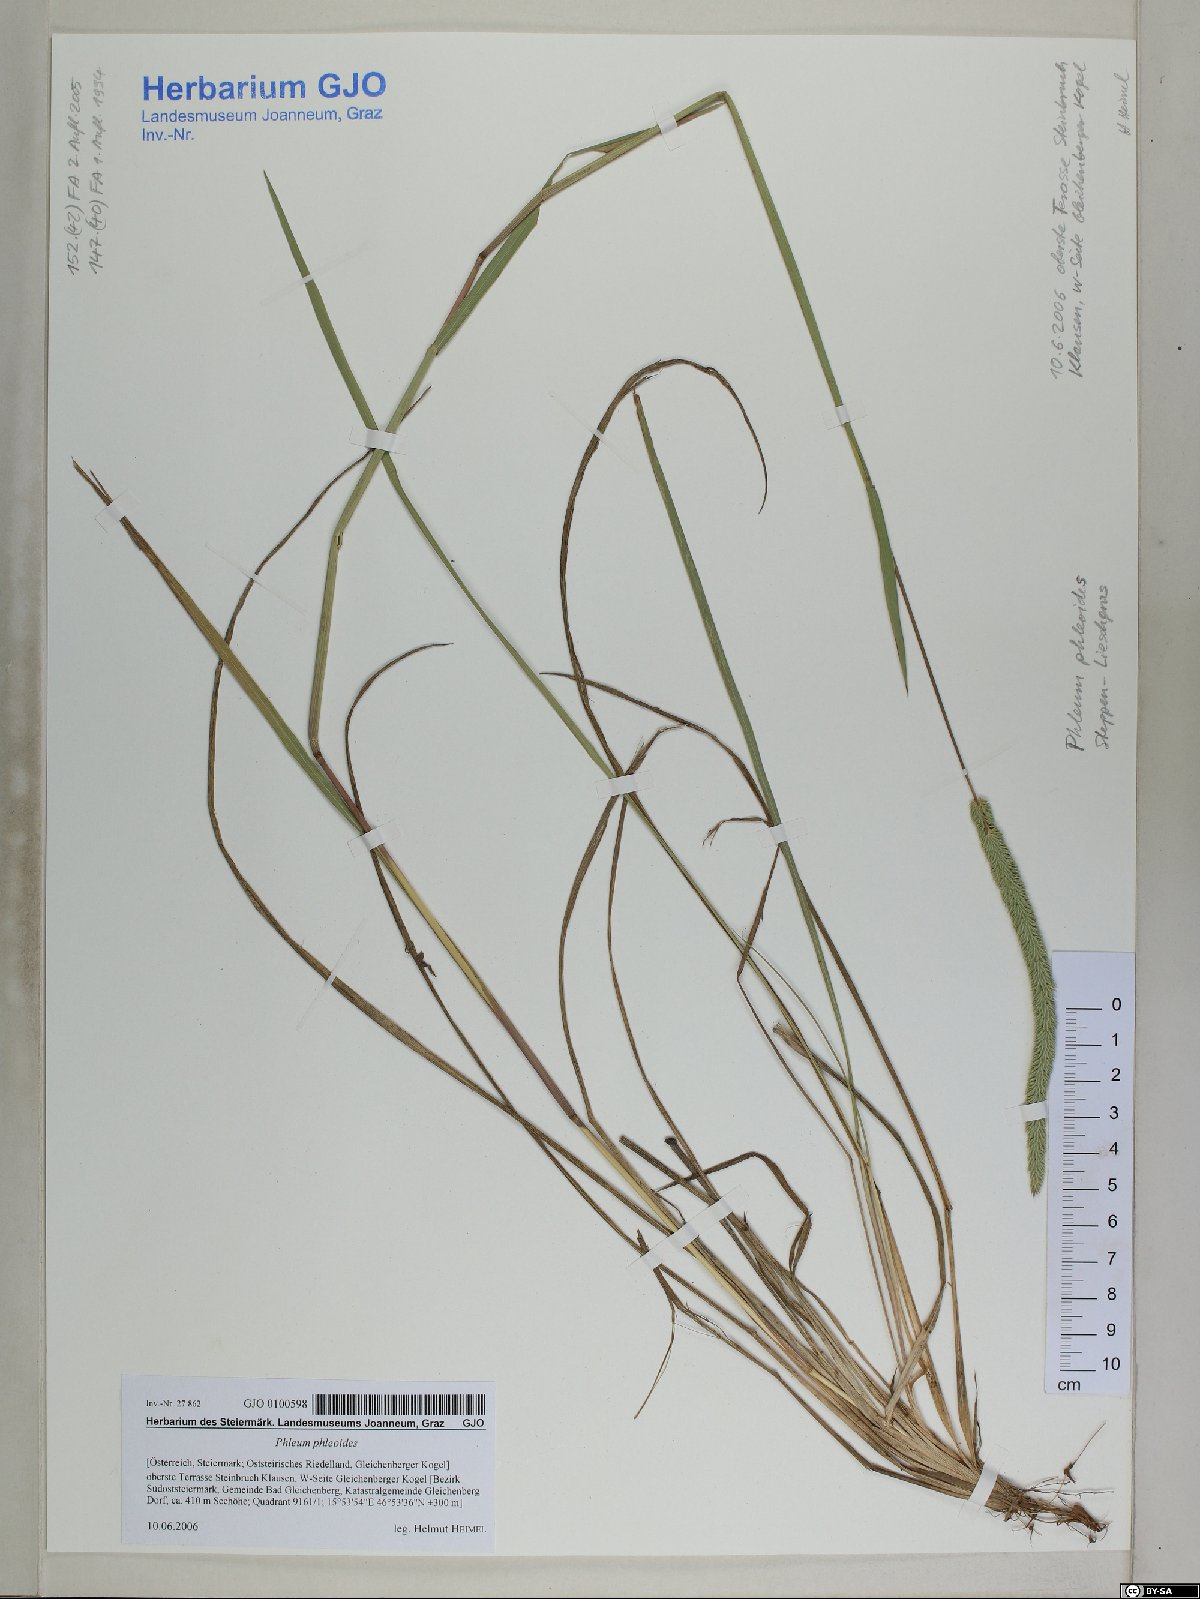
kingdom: Plantae
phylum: Tracheophyta
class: Liliopsida
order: Poales
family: Poaceae
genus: Phleum
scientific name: Phleum phleoides
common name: Purple-stem cat's-tail
